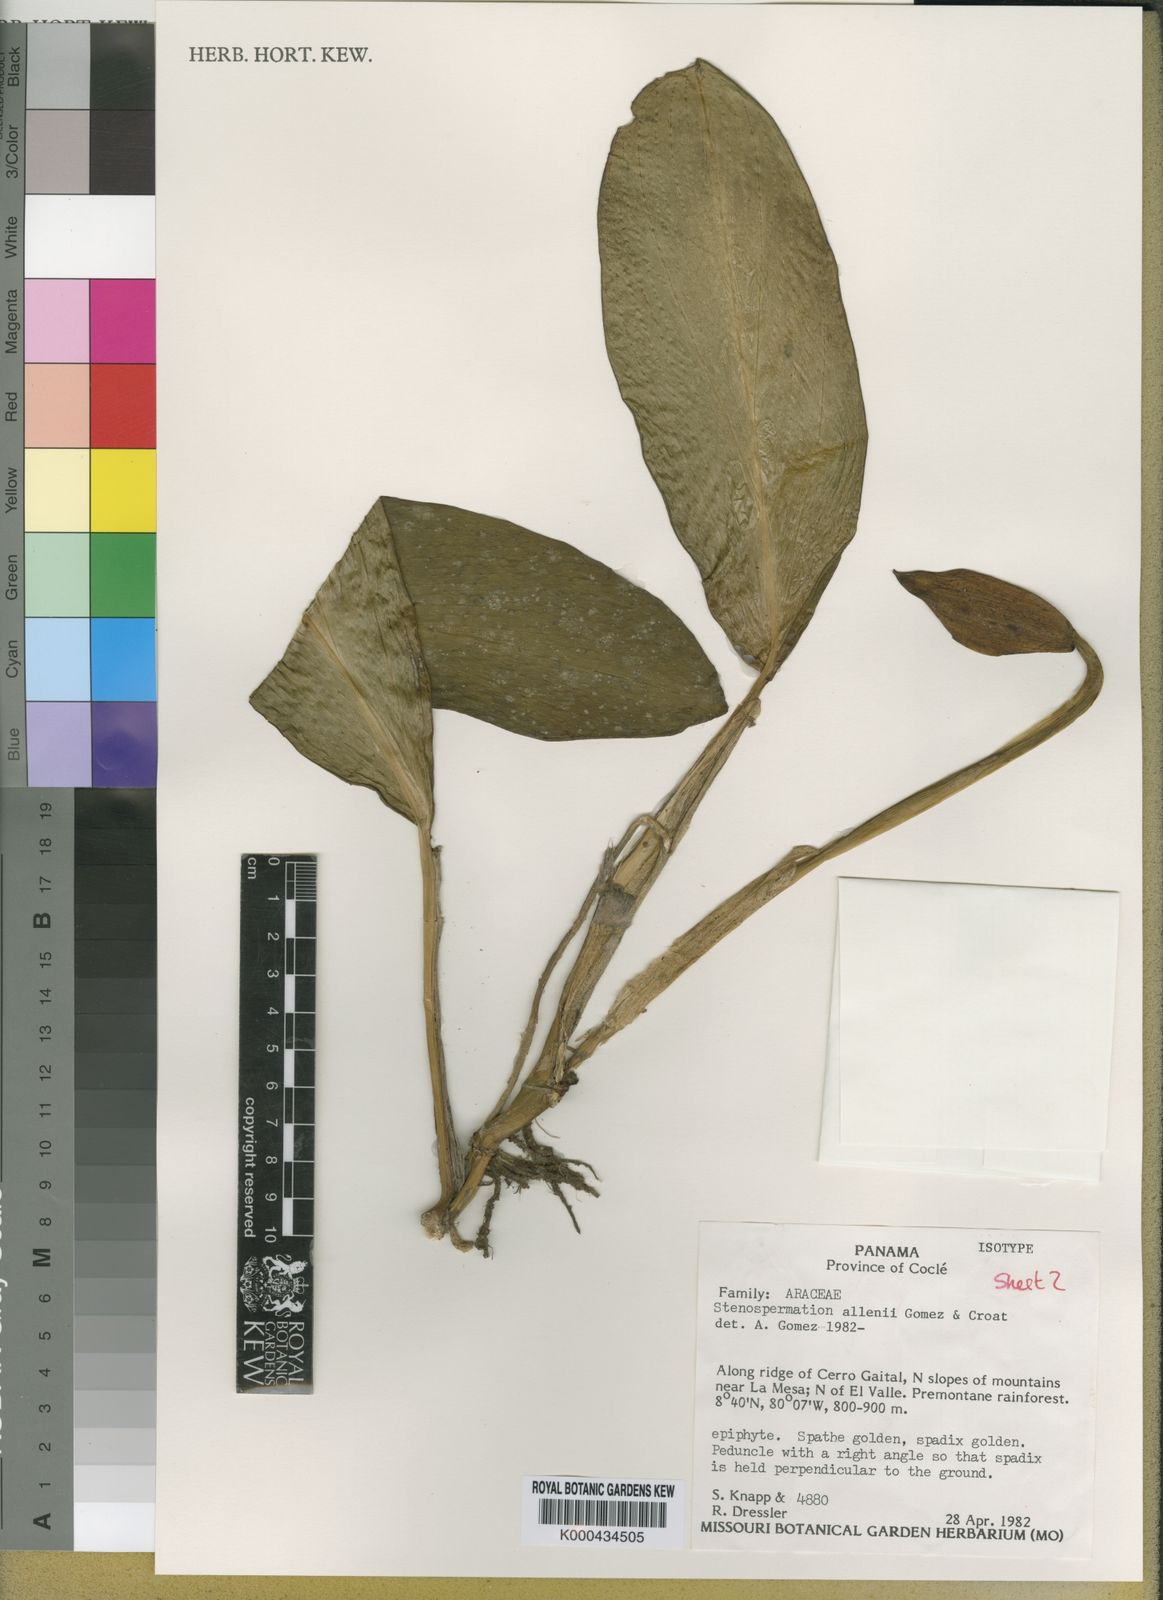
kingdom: Plantae
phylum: Tracheophyta
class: Liliopsida
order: Alismatales
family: Araceae
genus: Stenospermation
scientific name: Stenospermation
